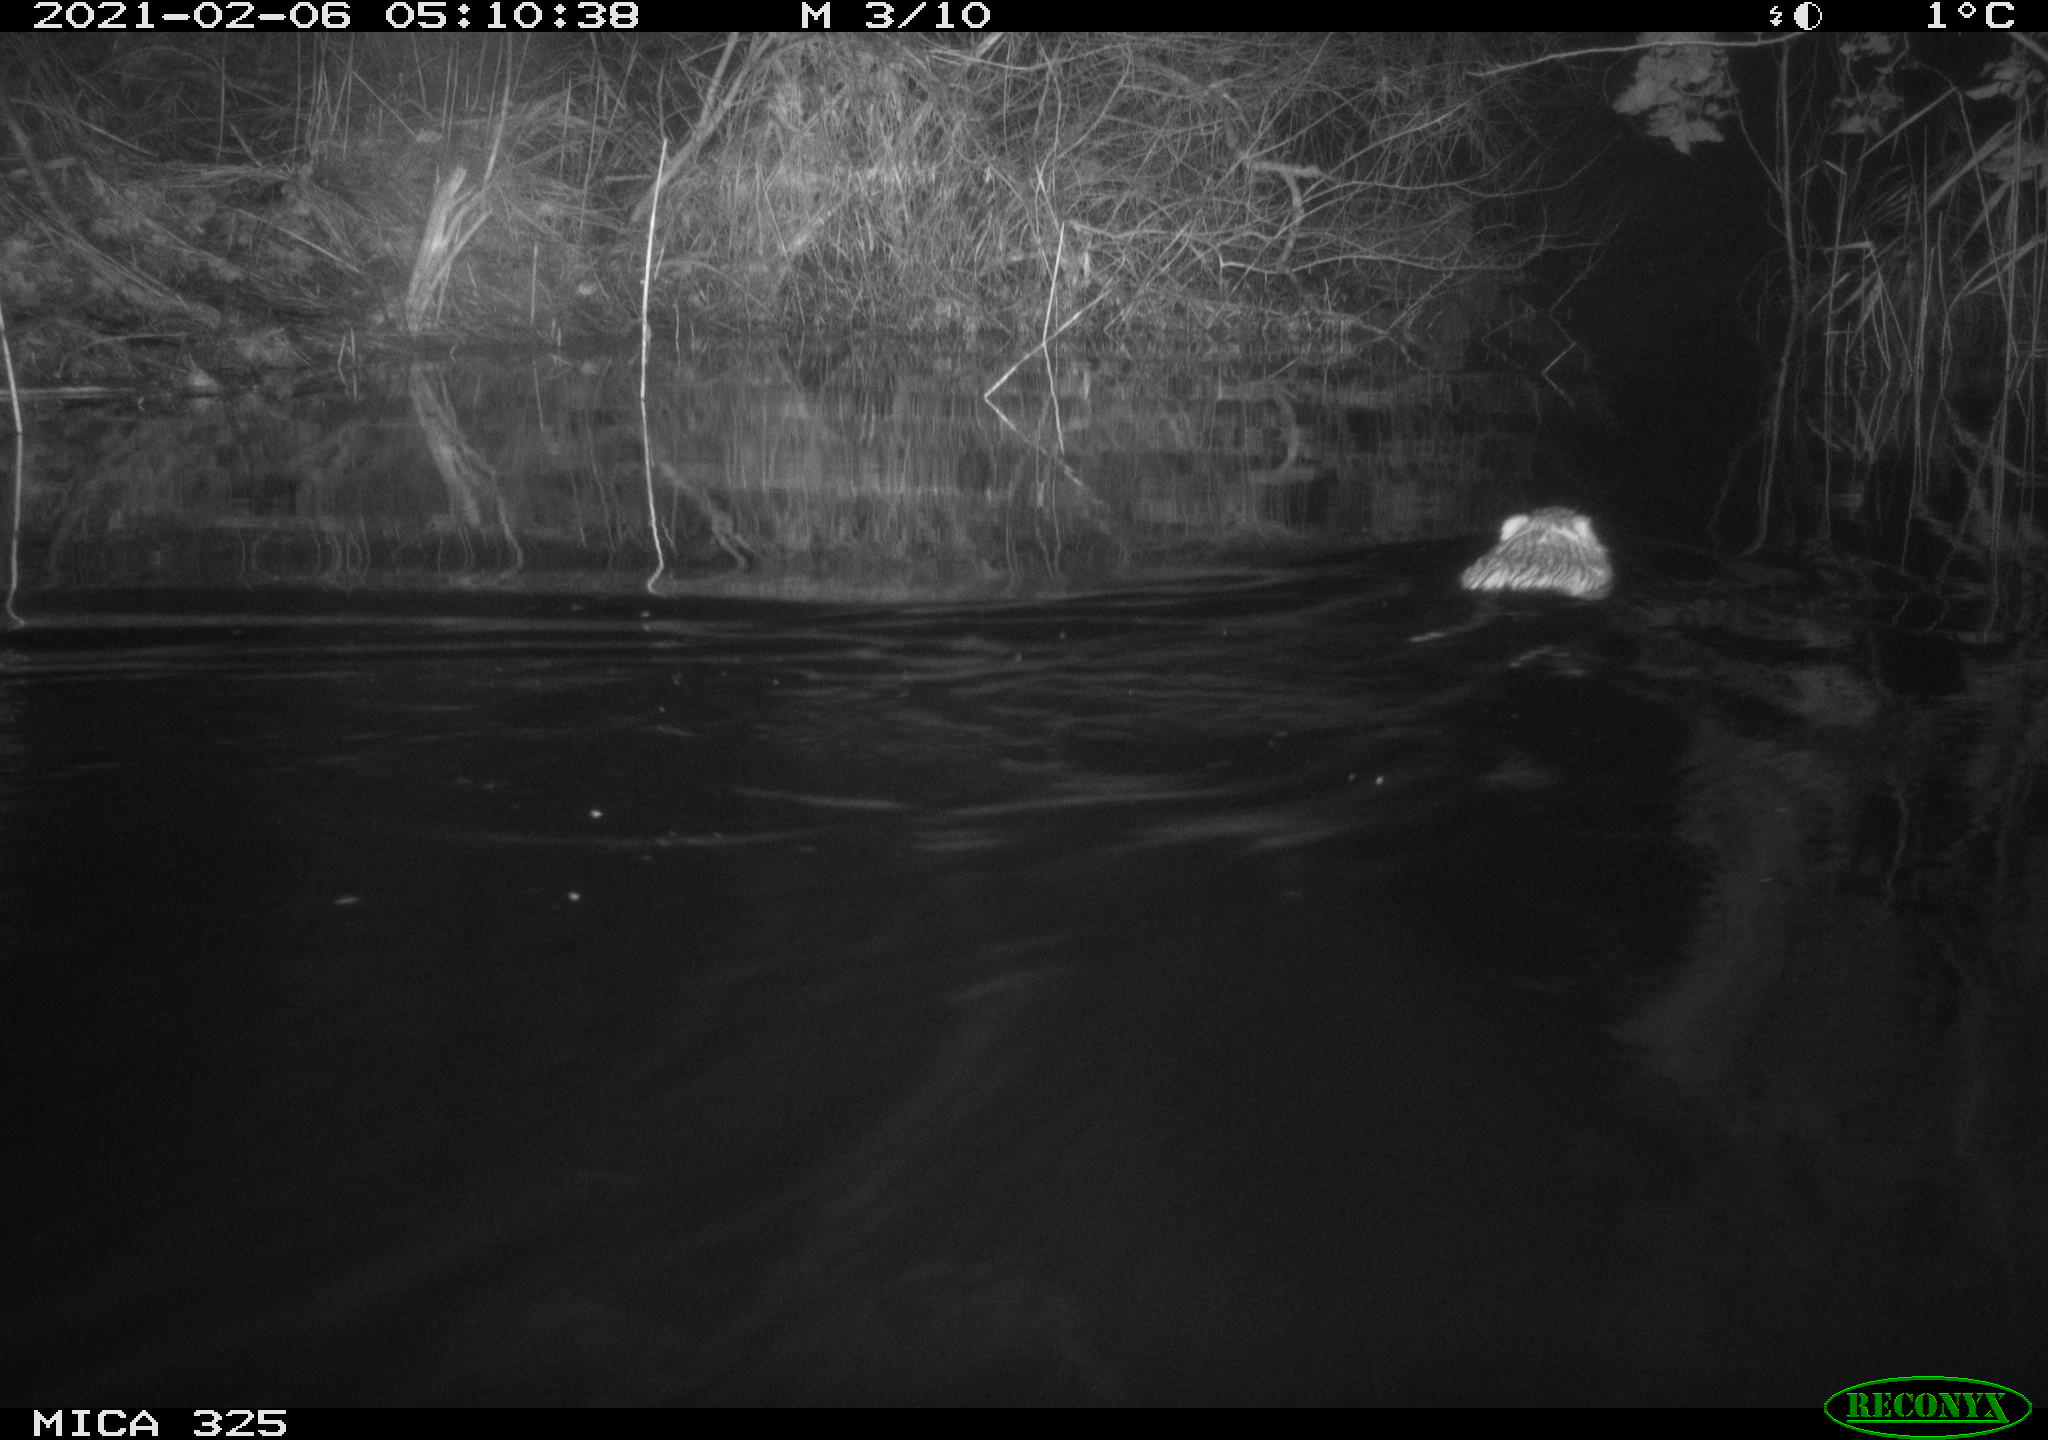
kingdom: Animalia
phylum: Chordata
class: Mammalia
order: Rodentia
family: Myocastoridae
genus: Myocastor
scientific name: Myocastor coypus
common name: Coypu
